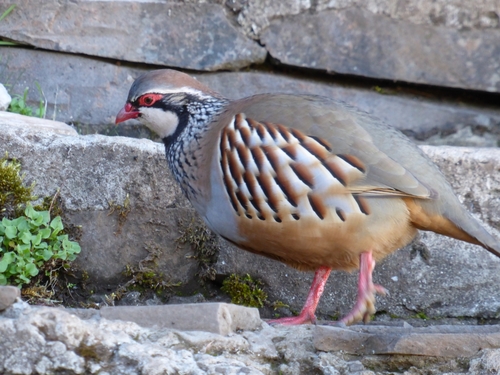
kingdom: Animalia
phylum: Chordata
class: Aves
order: Galliformes
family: Phasianidae
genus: Alectoris
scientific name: Alectoris rufa
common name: Red-legged partridge
